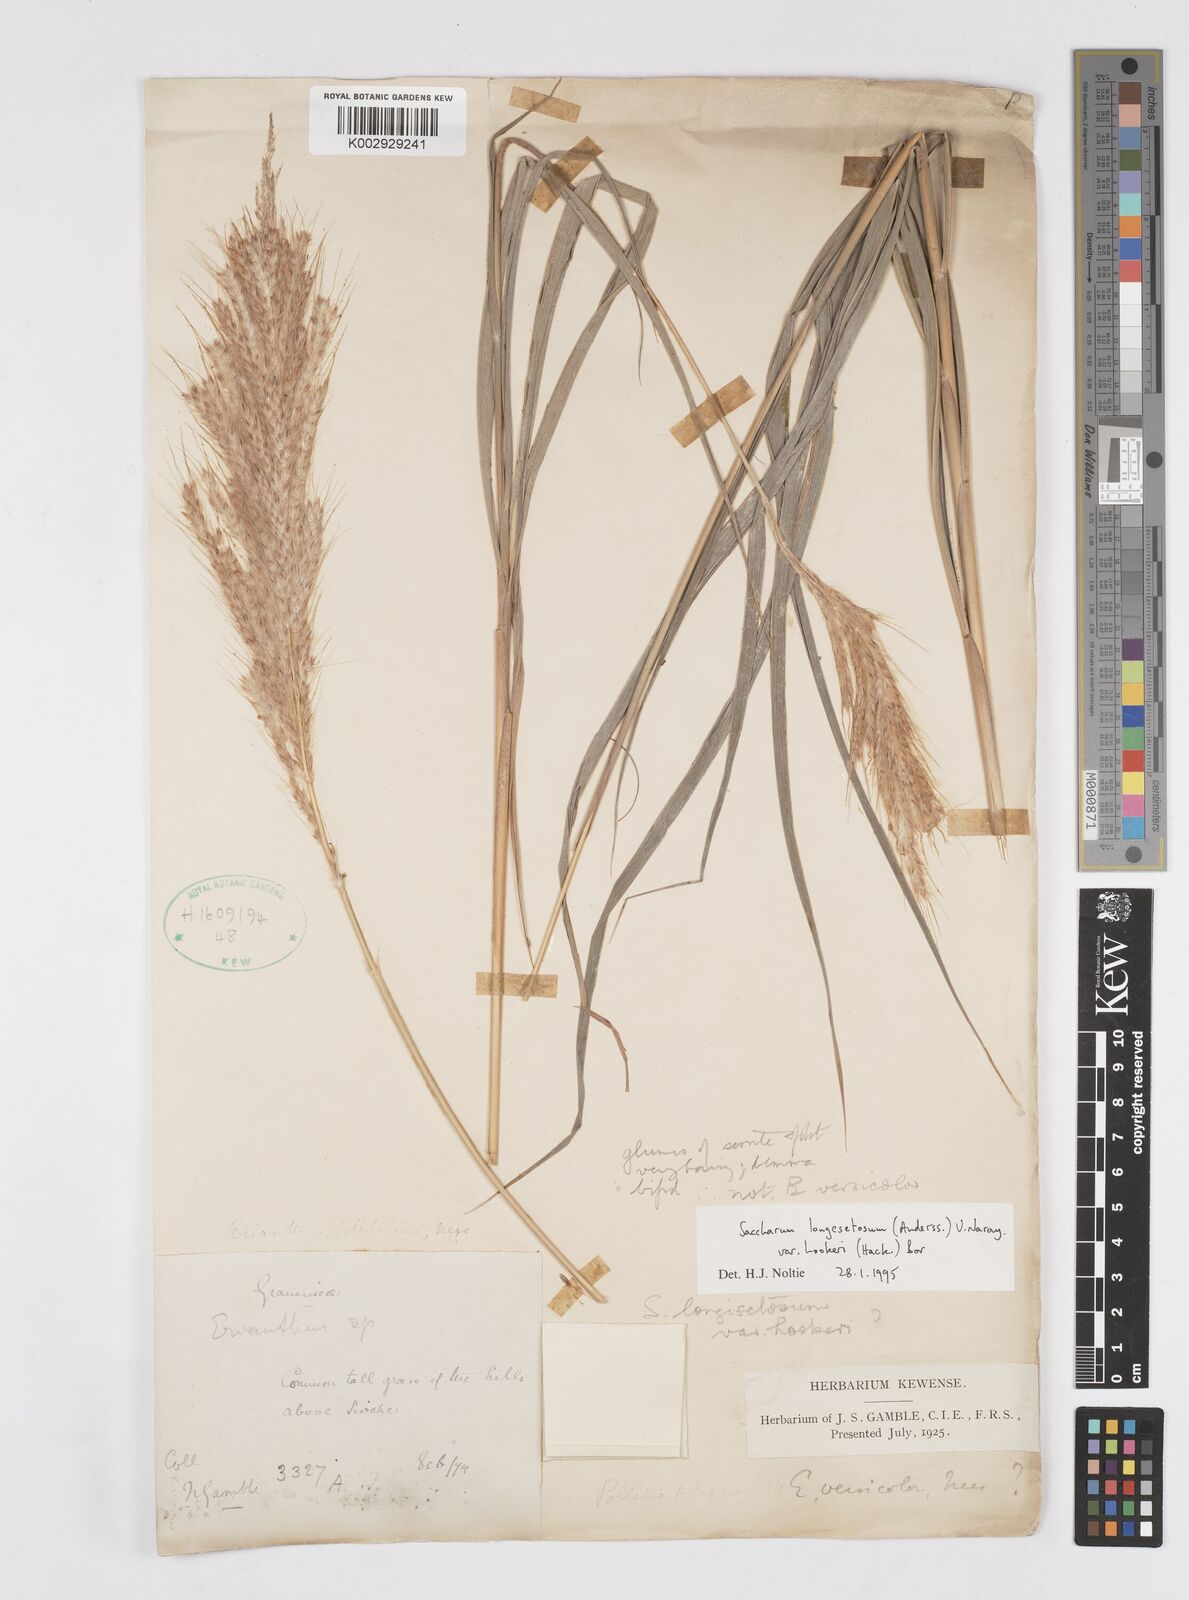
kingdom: Plantae
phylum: Tracheophyta
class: Liliopsida
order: Poales
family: Poaceae
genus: Saccharum
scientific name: Saccharum longesetosum
